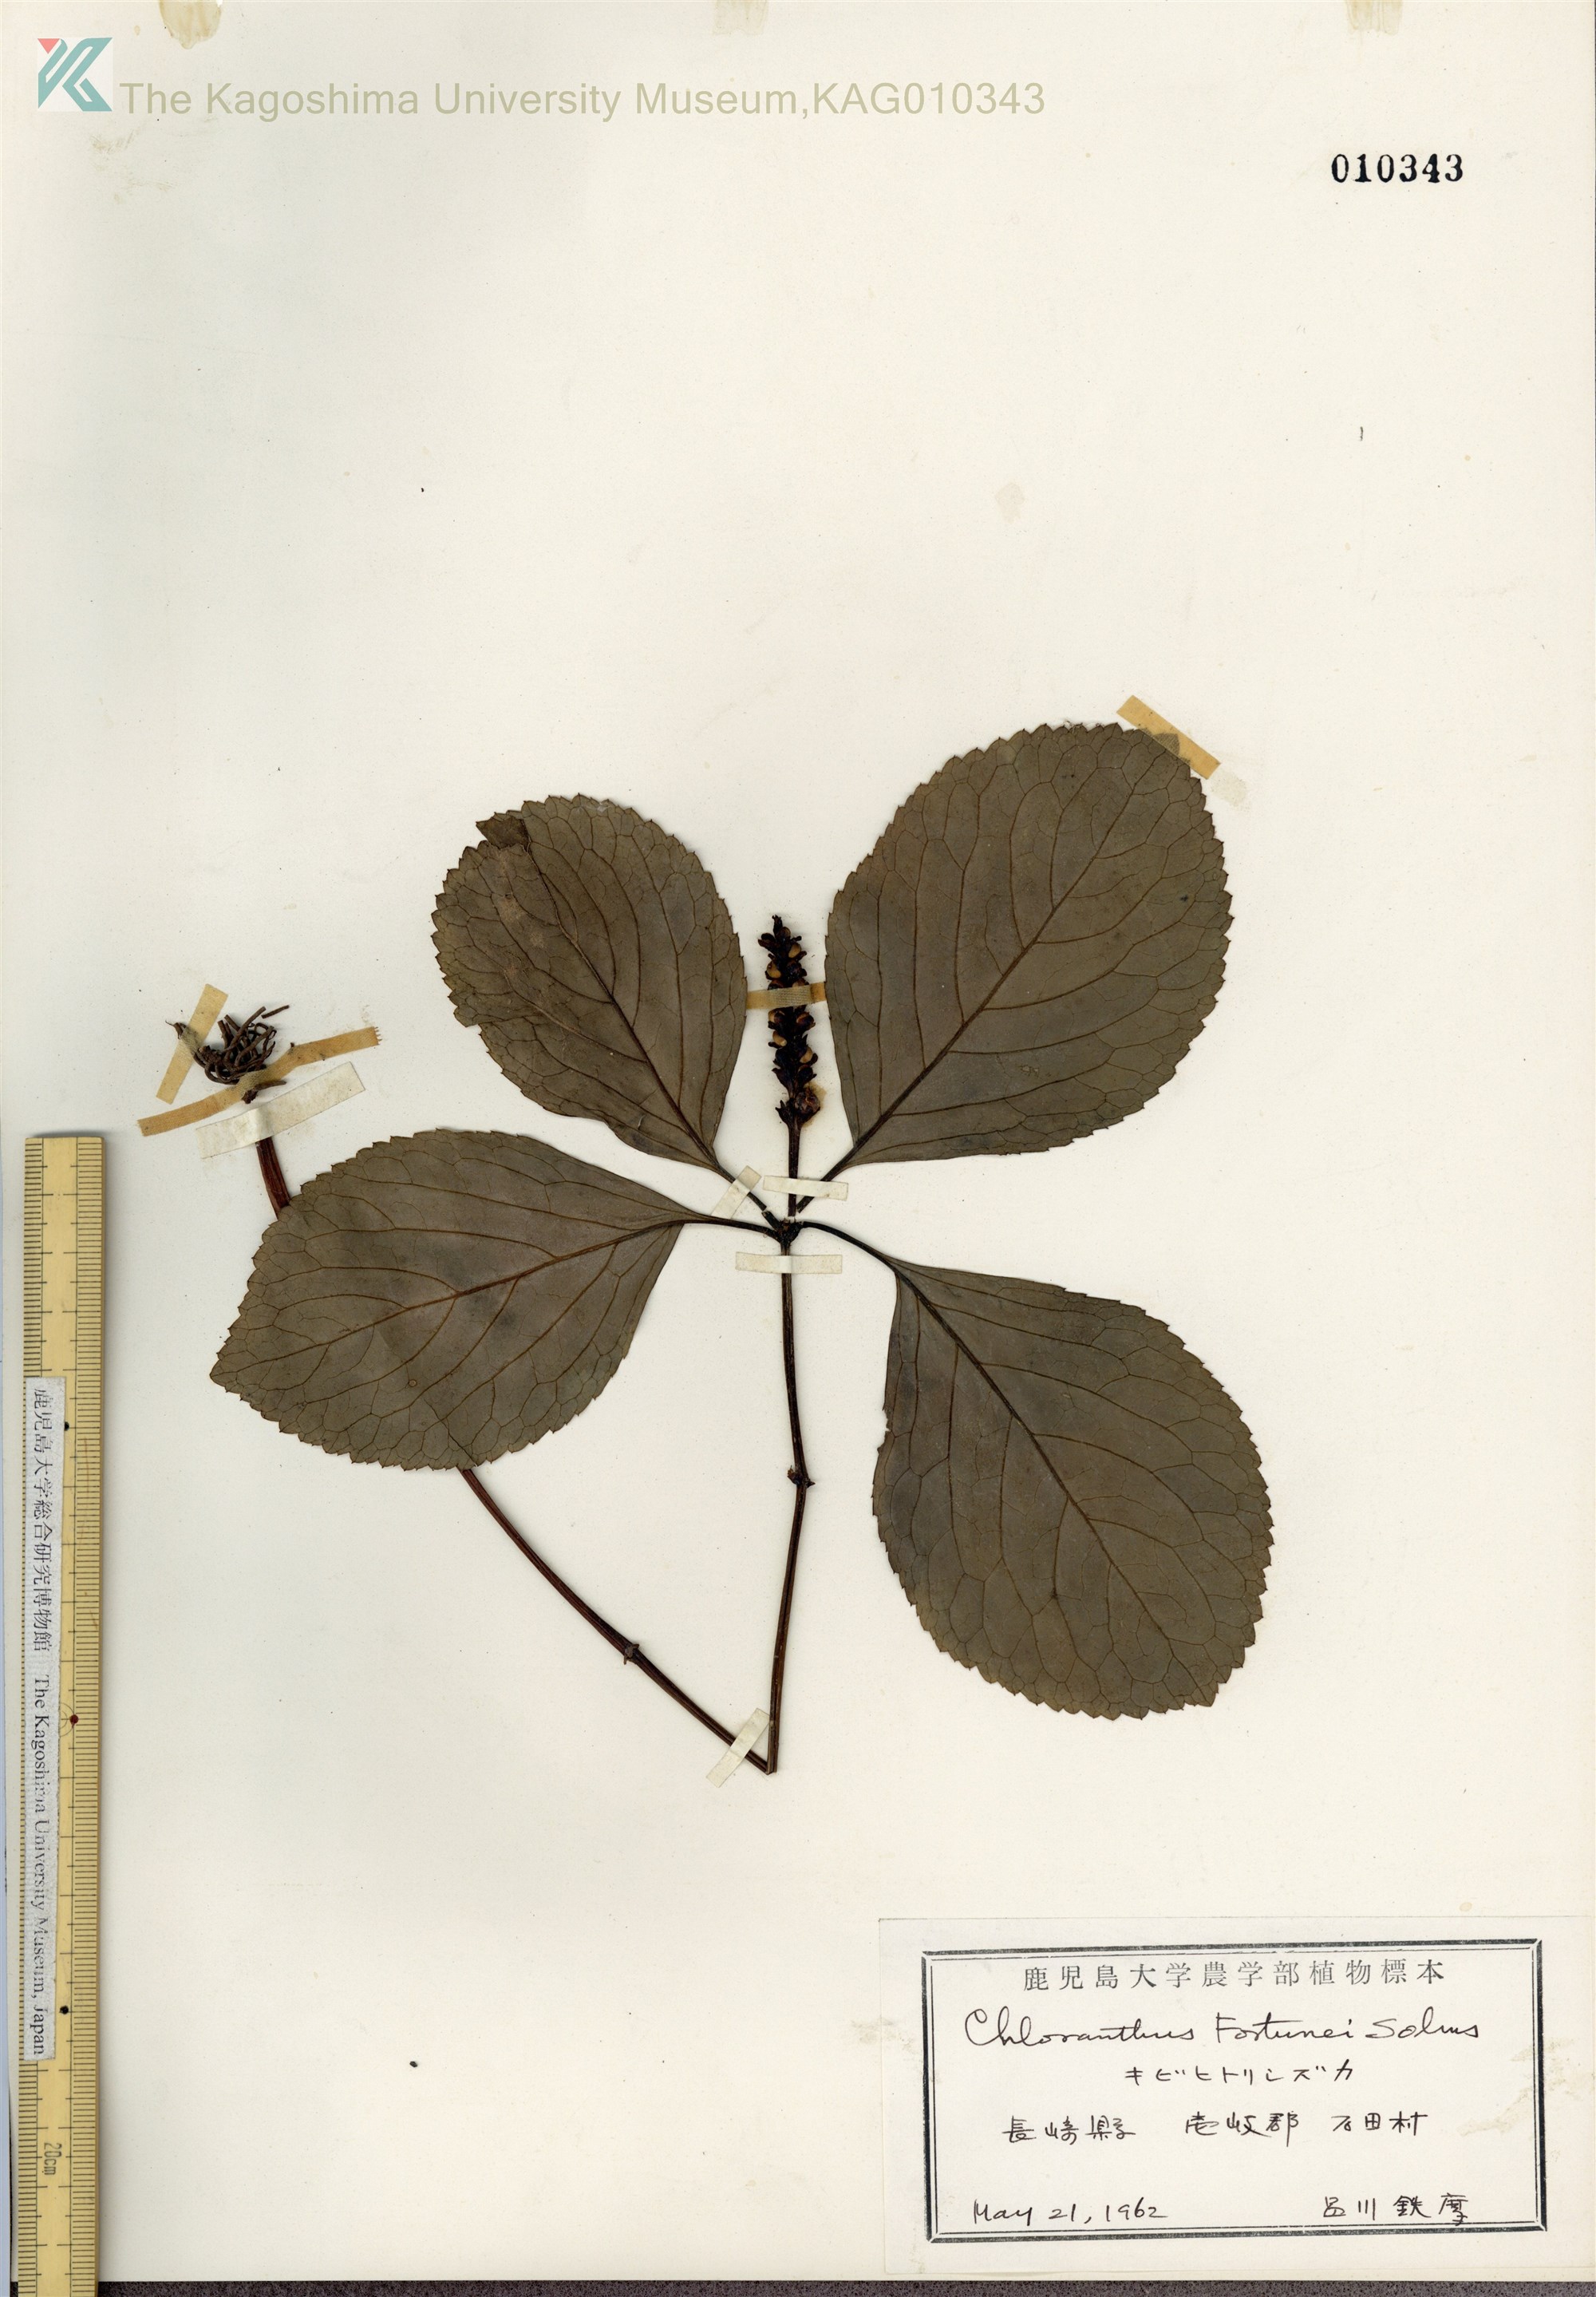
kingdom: Plantae
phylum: Tracheophyta
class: Magnoliopsida
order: Chloranthales
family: Chloranthaceae
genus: Chloranthus
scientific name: Chloranthus fortunei
